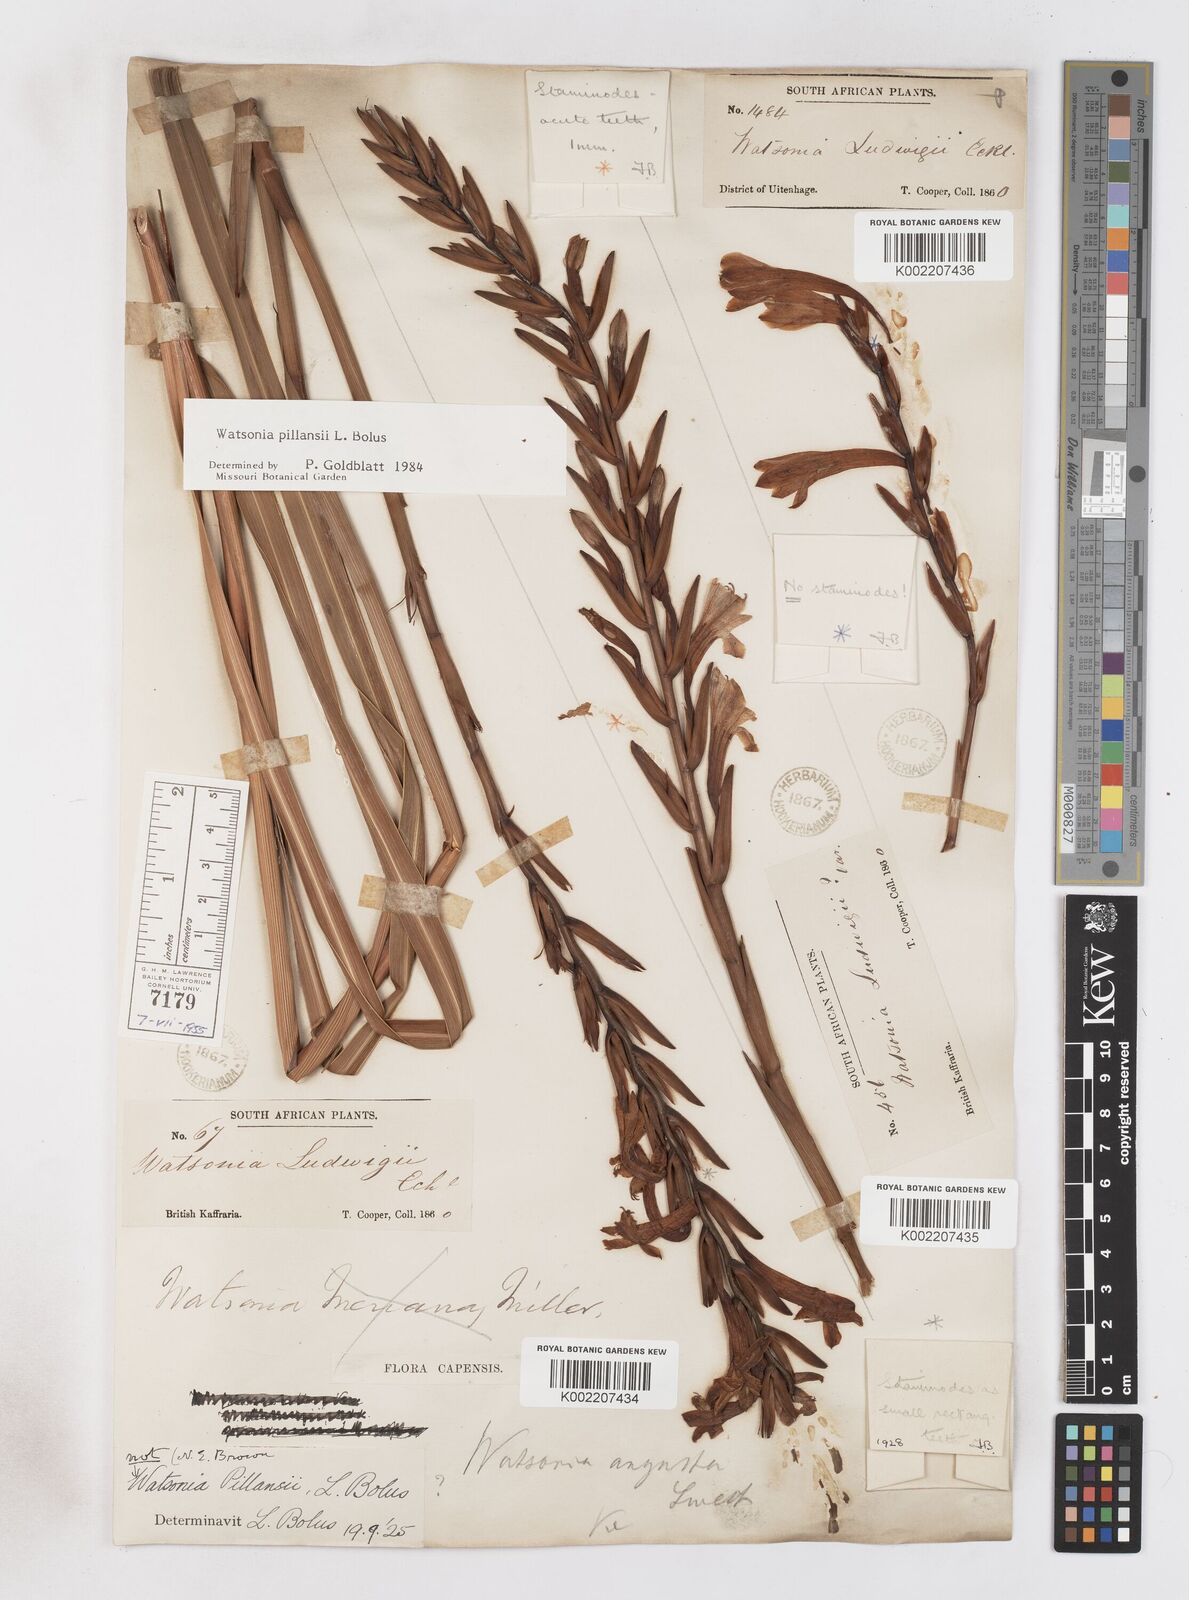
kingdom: Plantae
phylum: Tracheophyta
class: Liliopsida
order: Asparagales
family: Iridaceae
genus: Watsonia
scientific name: Watsonia pillansii
